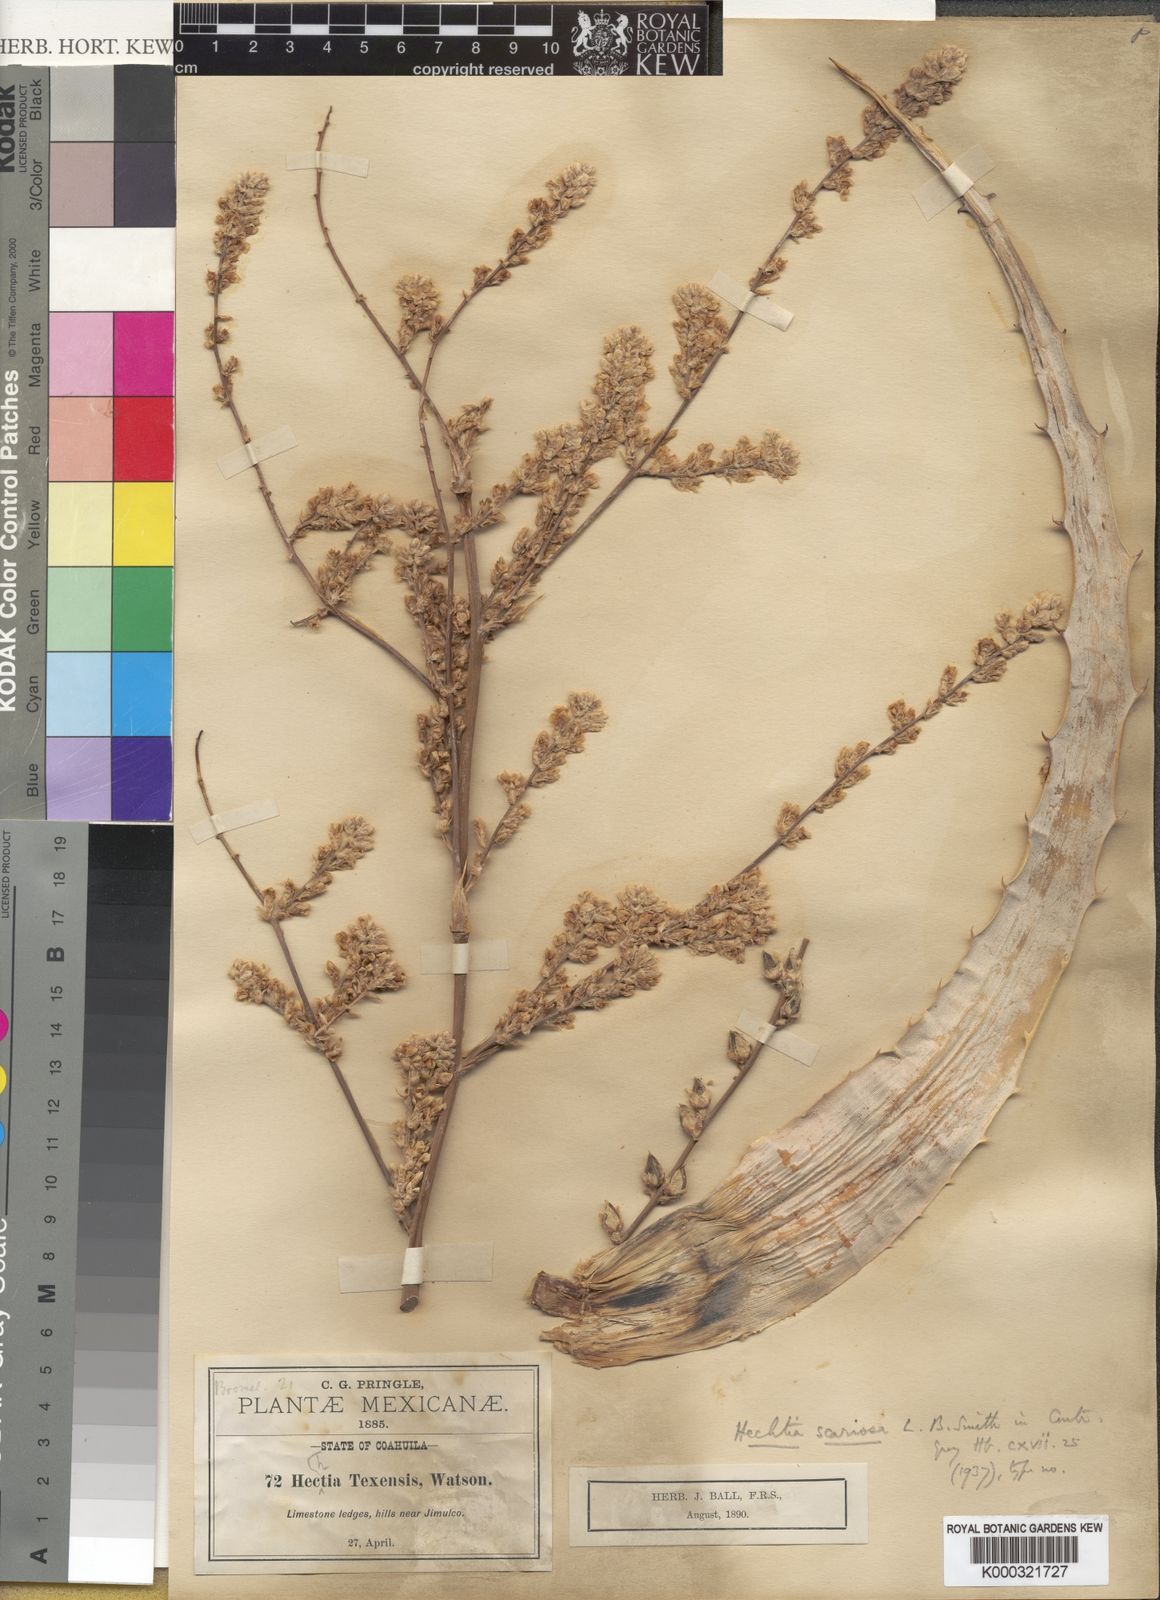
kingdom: Plantae
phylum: Tracheophyta
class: Liliopsida
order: Poales
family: Bromeliaceae
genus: Hechtia
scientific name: Hechtia texensis
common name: False agave
